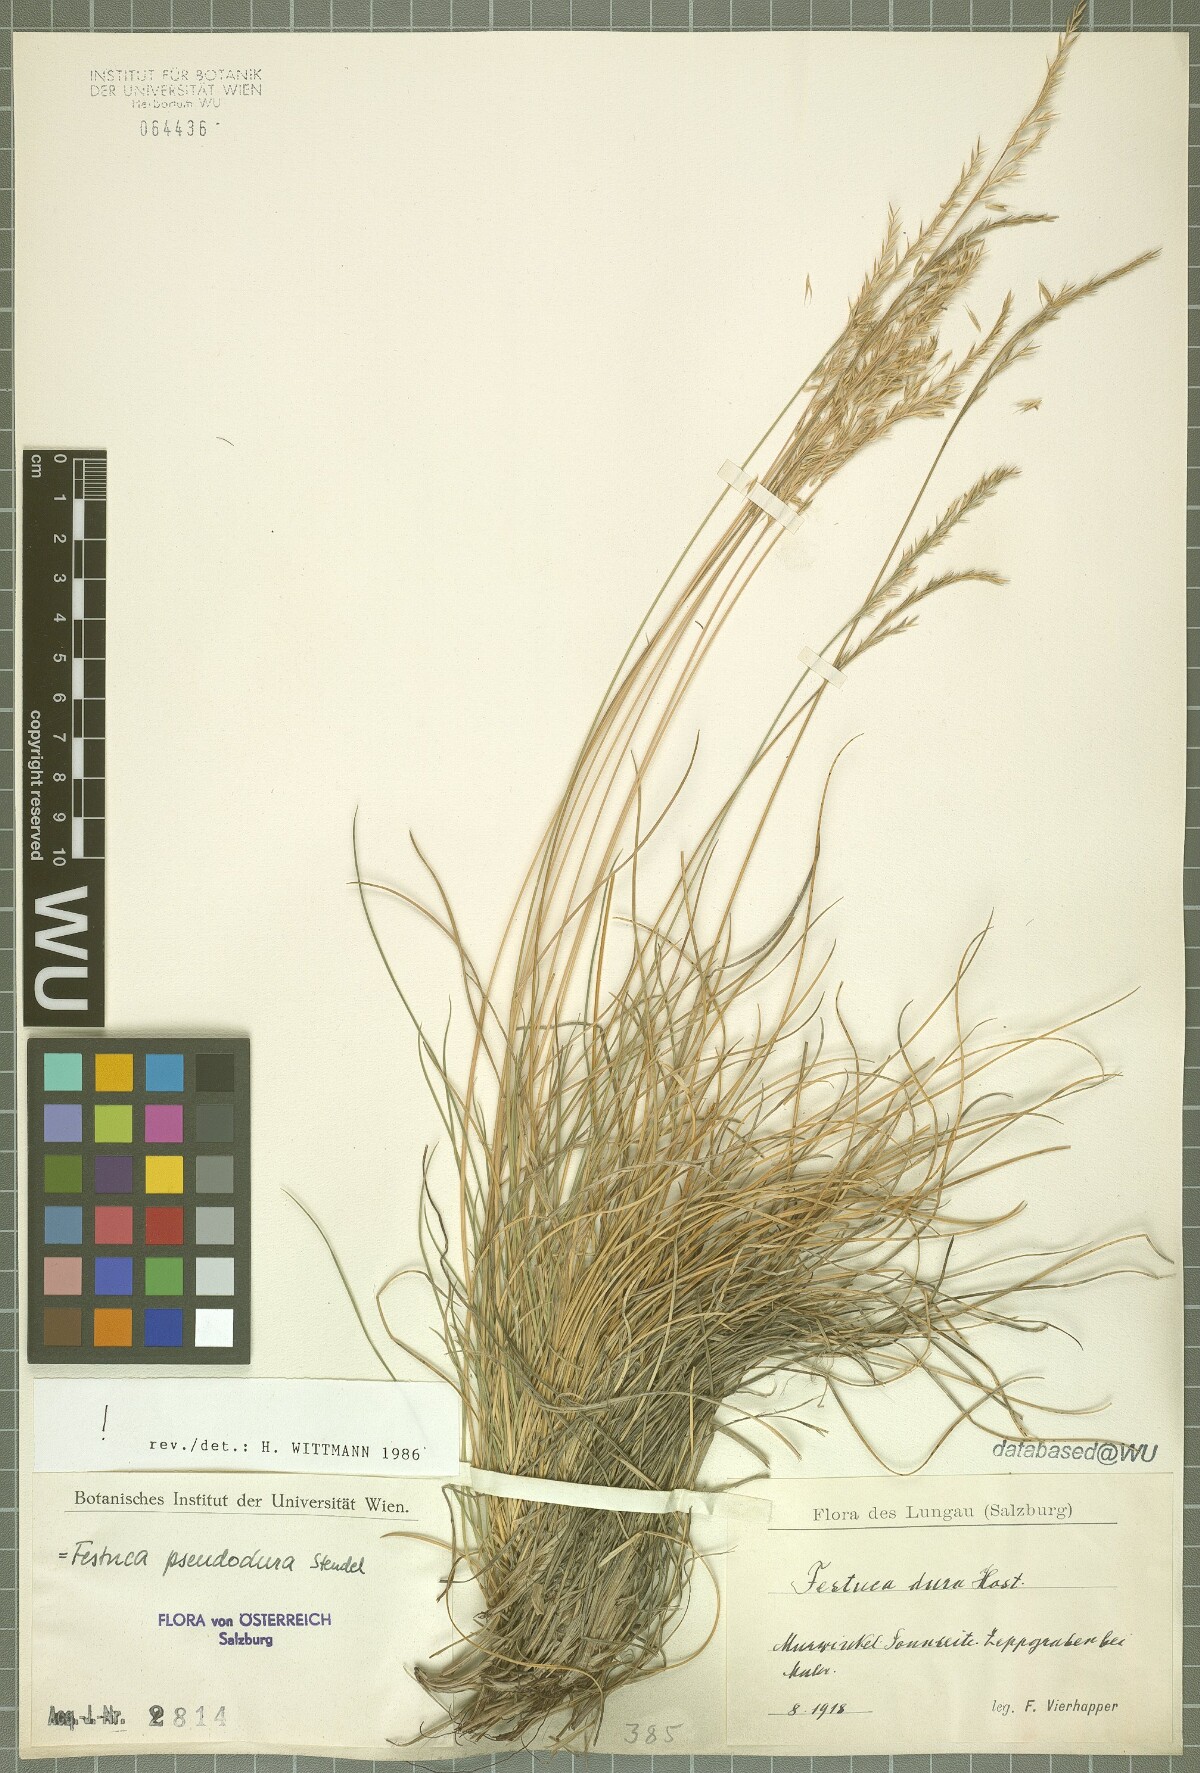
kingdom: Plantae
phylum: Tracheophyta
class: Liliopsida
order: Poales
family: Poaceae
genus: Festuca
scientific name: Festuca pseudodura
